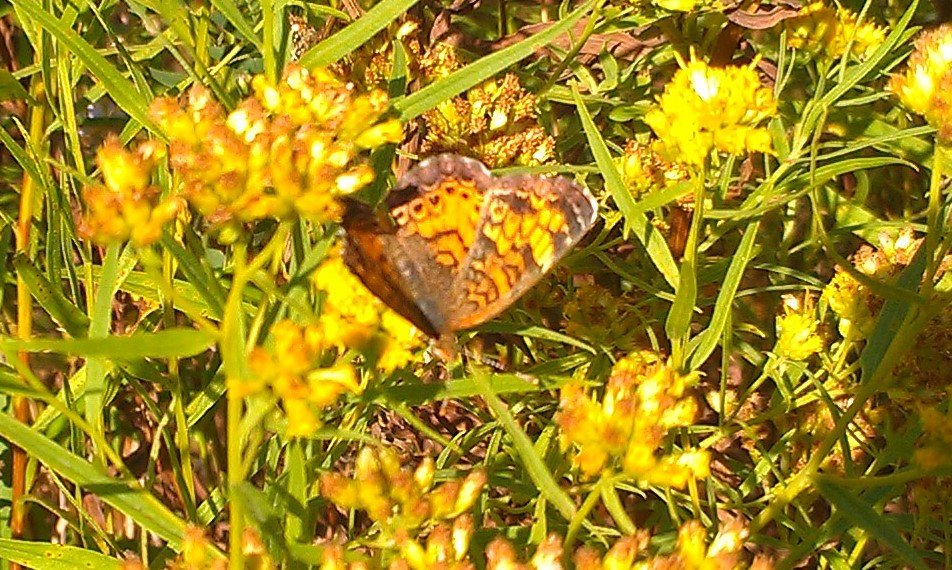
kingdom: Animalia
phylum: Arthropoda
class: Insecta
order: Lepidoptera
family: Nymphalidae
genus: Phyciodes
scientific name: Phyciodes tharos
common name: Northern Crescent
